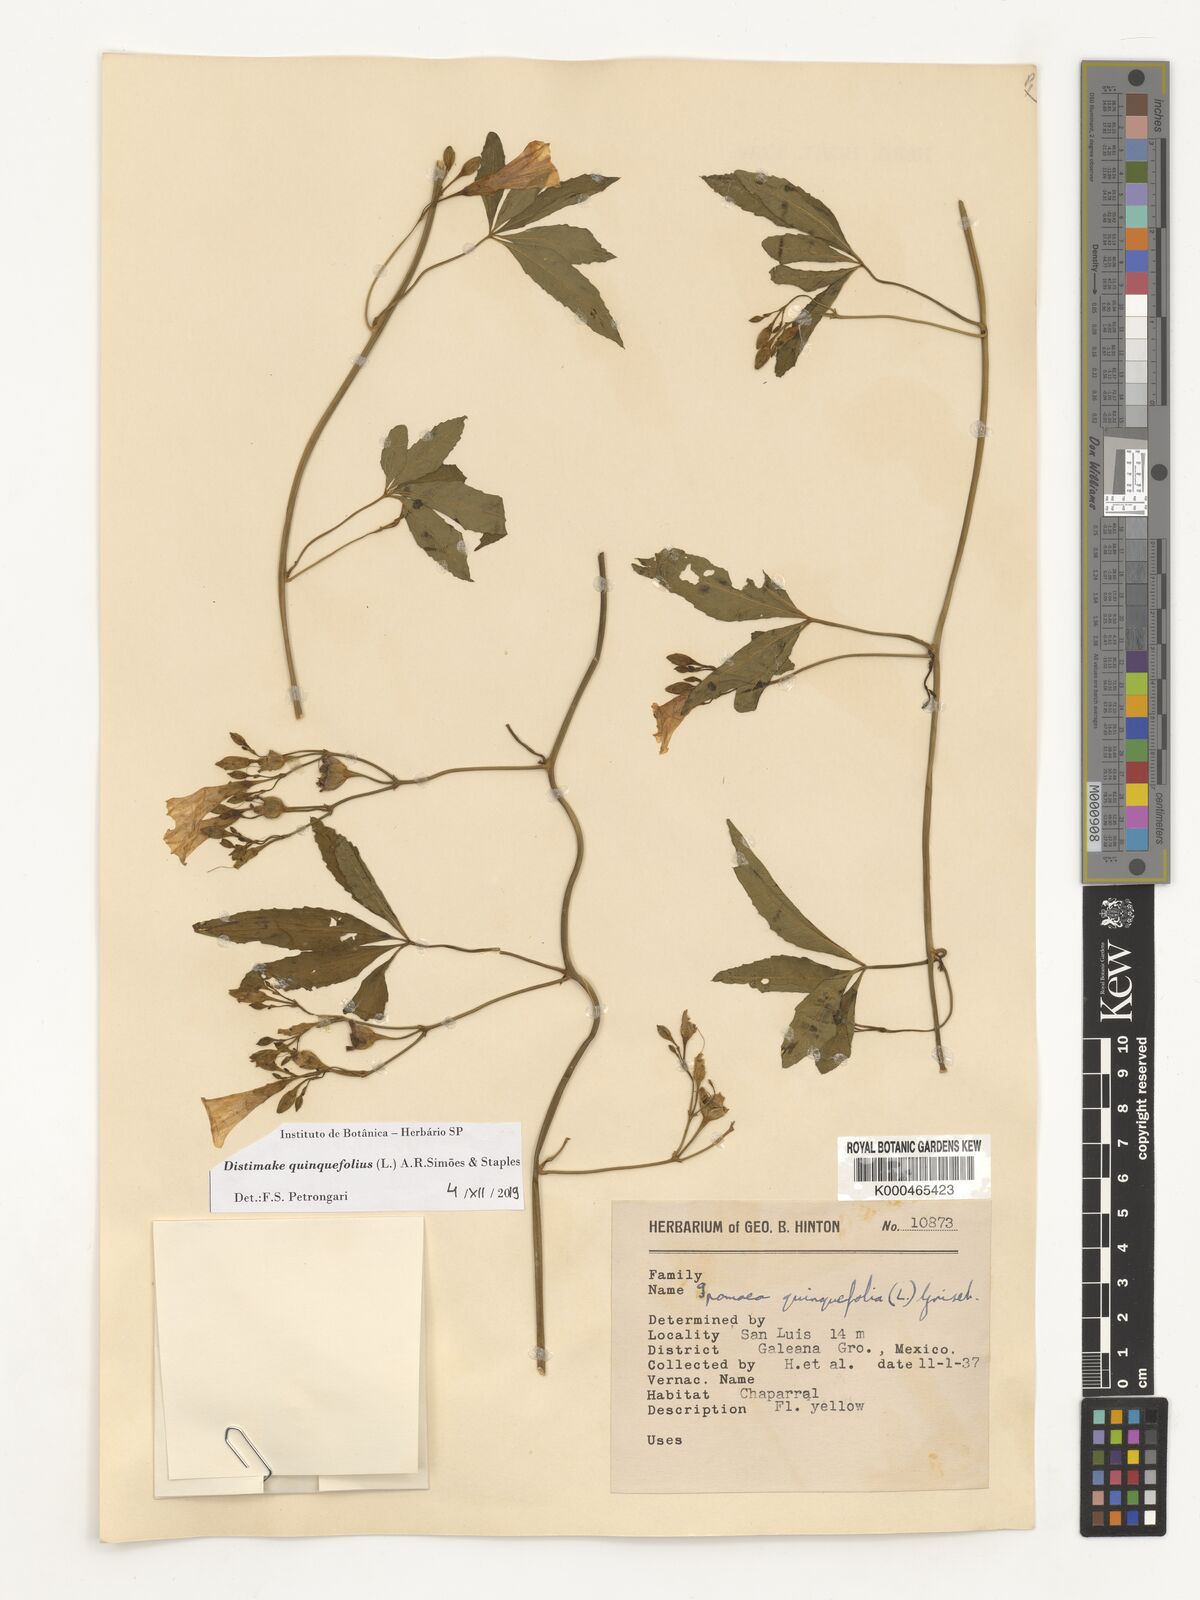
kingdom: Plantae
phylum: Tracheophyta
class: Magnoliopsida
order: Solanales
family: Convolvulaceae
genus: Distimake
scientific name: Distimake quinquefolius
